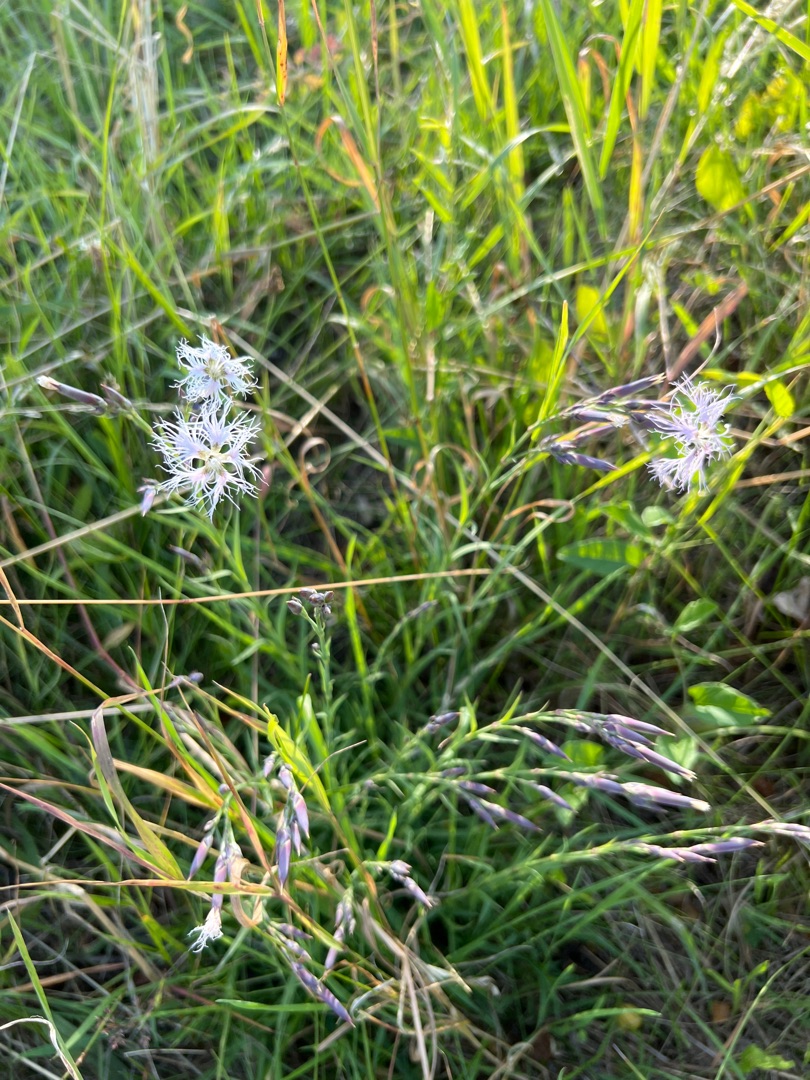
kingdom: Plantae
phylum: Tracheophyta
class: Magnoliopsida
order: Caryophyllales
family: Caryophyllaceae
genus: Dianthus
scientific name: Dianthus superbus
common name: Strand-nellike
